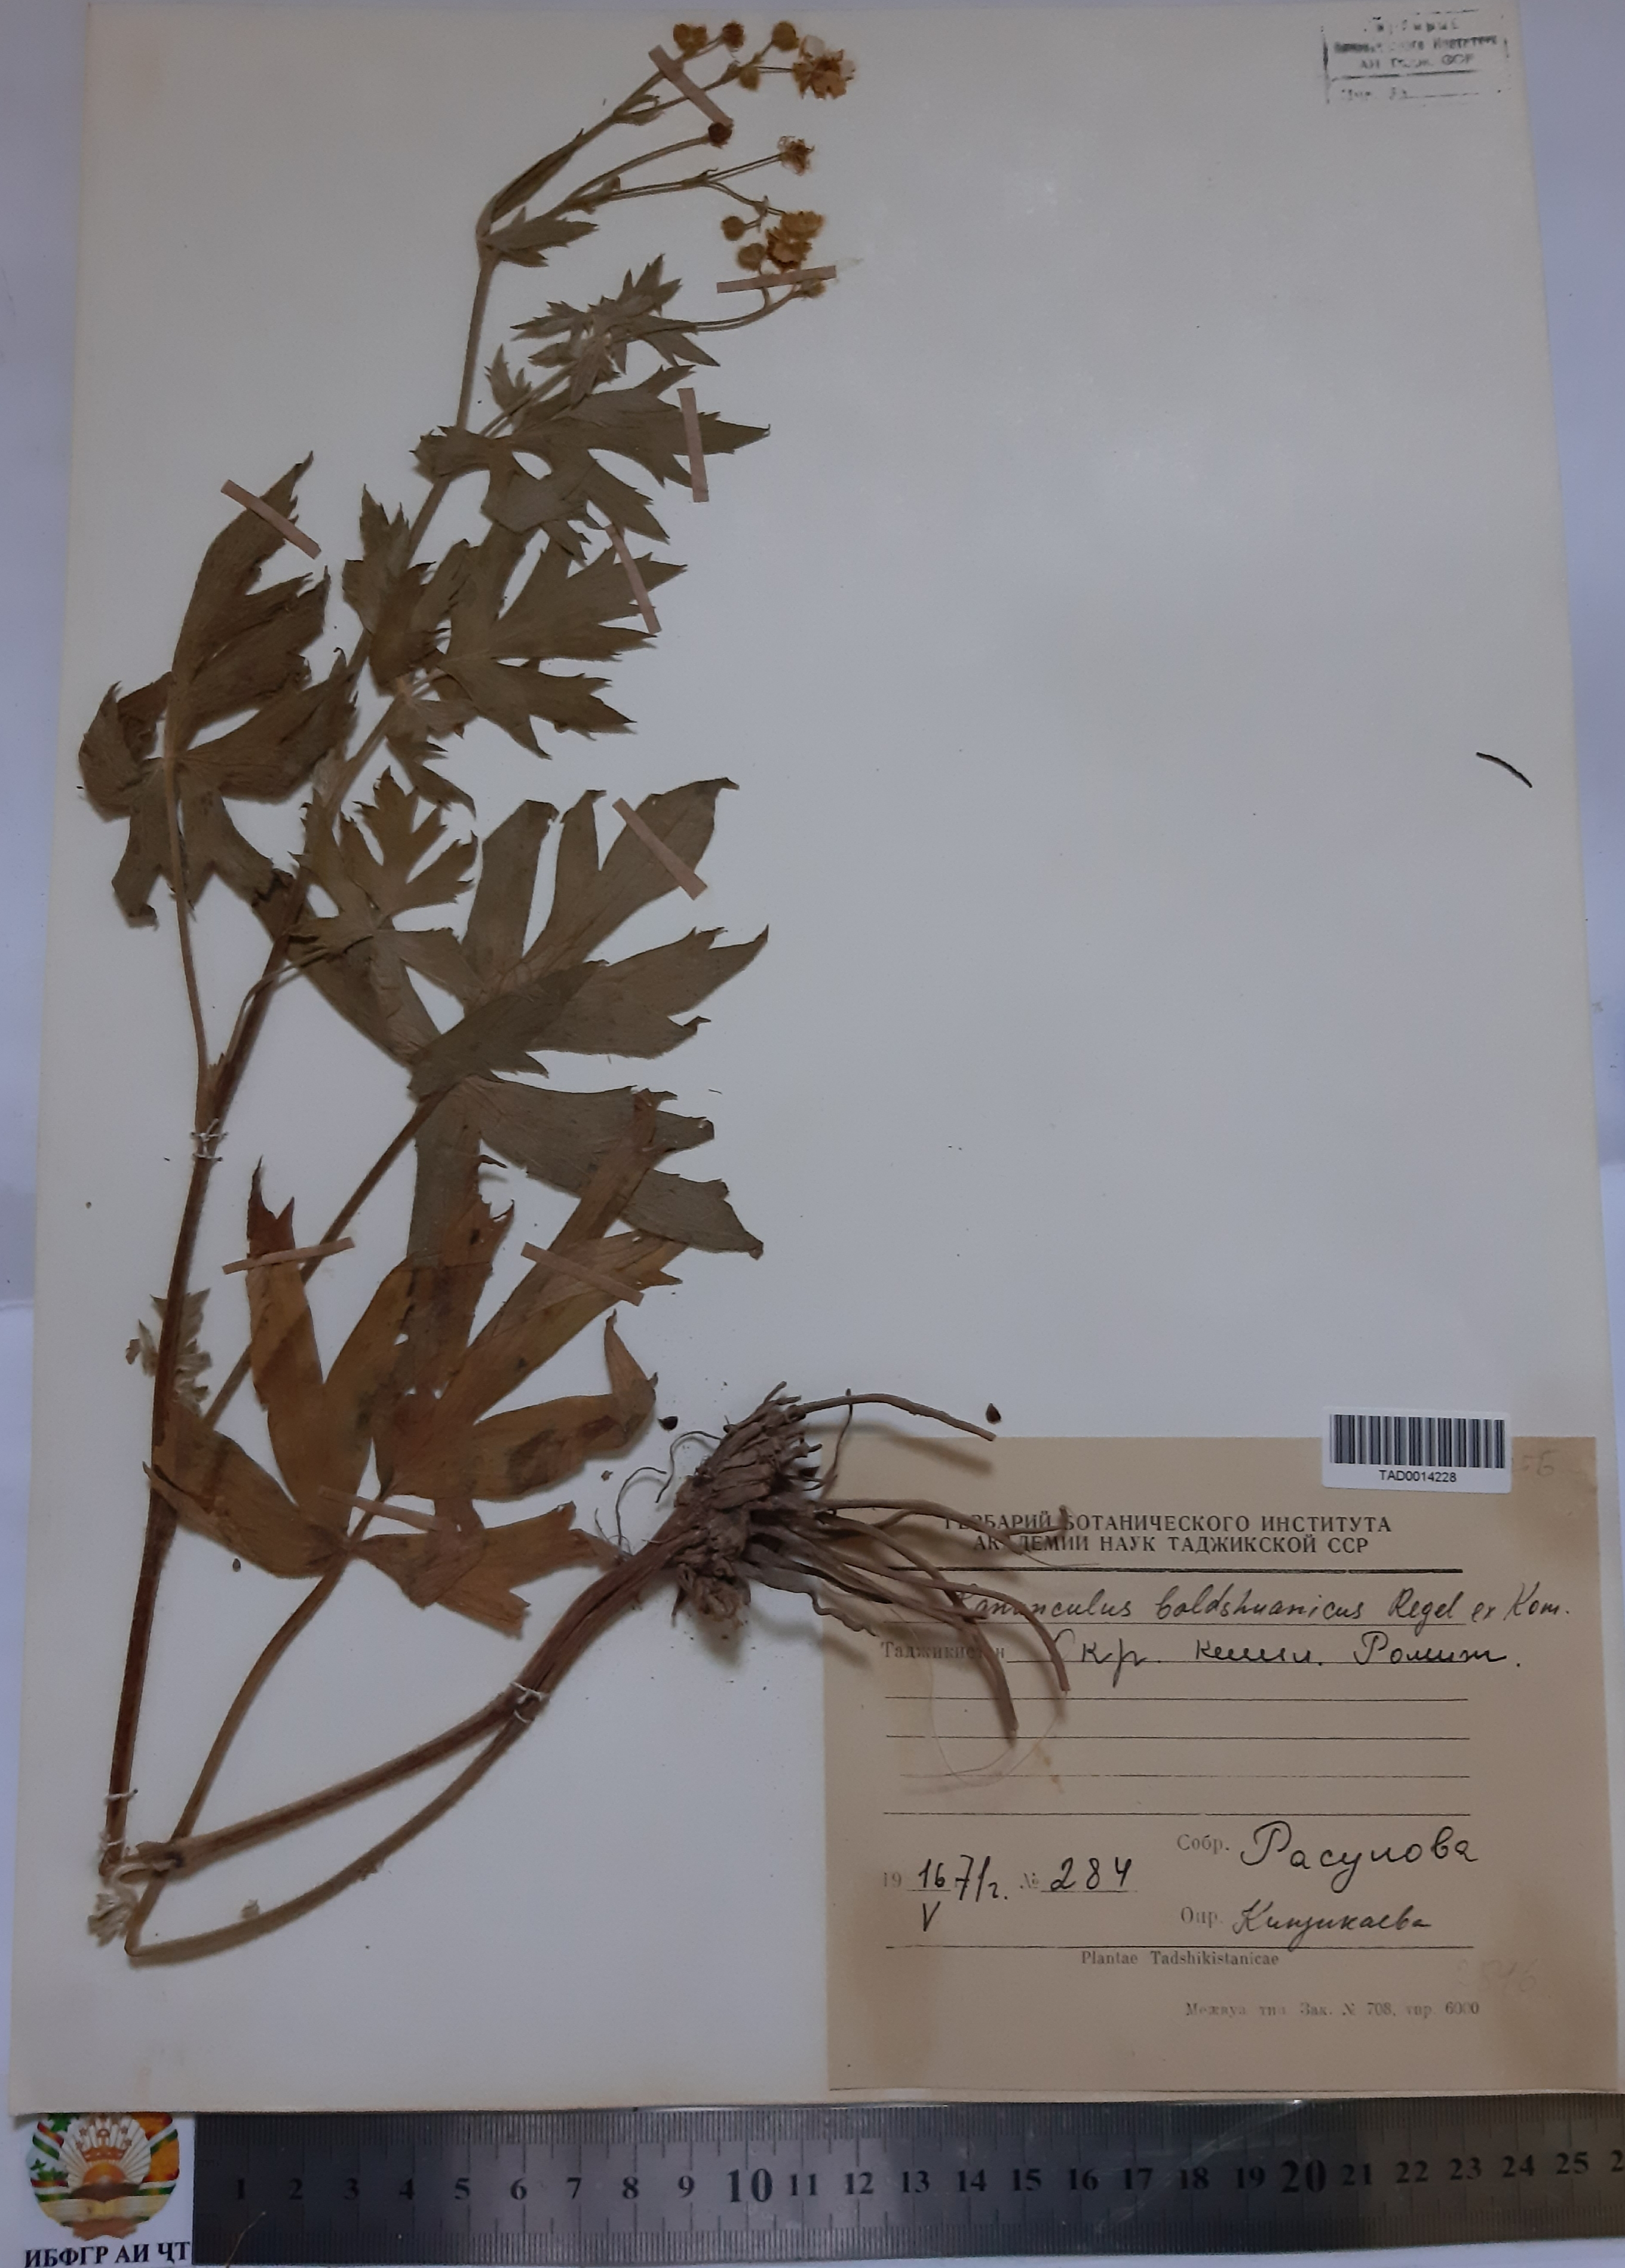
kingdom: Plantae
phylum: Tracheophyta
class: Magnoliopsida
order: Ranunculales
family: Ranunculaceae
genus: Ranunculus
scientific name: Ranunculus baldshuanicus
